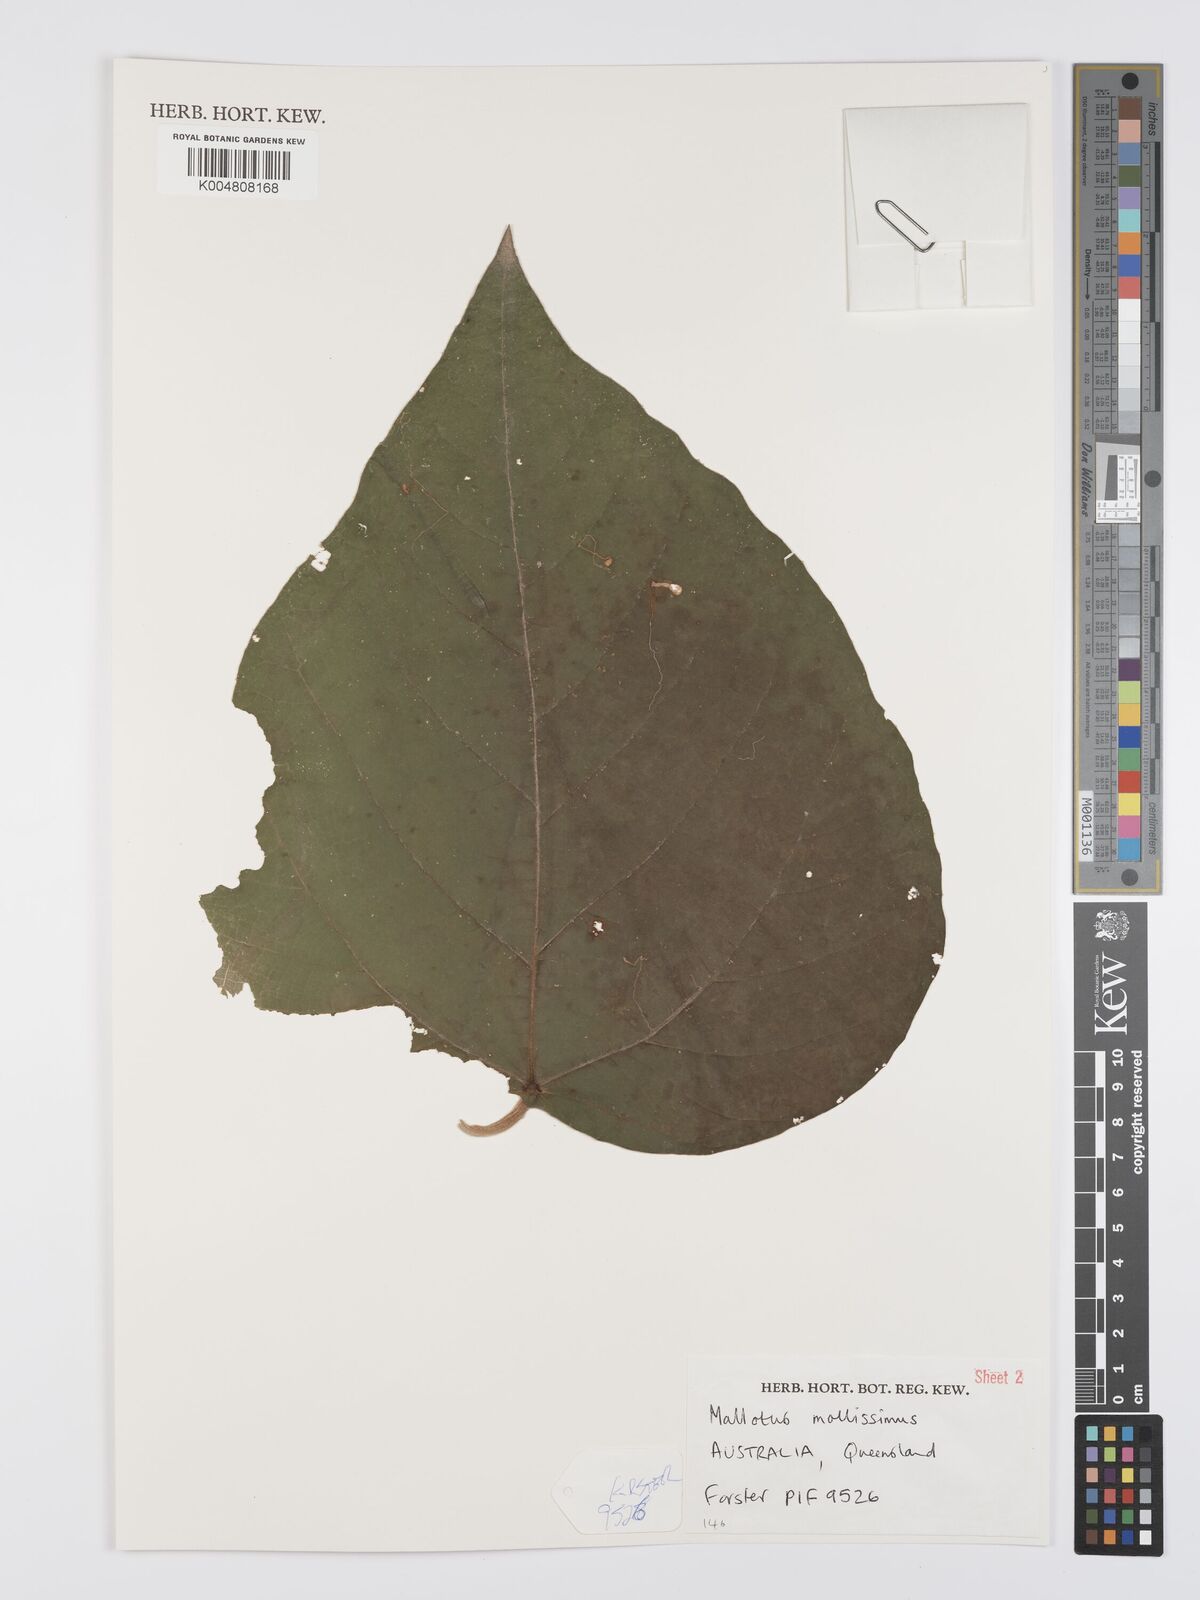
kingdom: Plantae
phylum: Tracheophyta
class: Magnoliopsida
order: Malpighiales
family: Euphorbiaceae
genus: Mallotus
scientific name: Mallotus mollissimus
